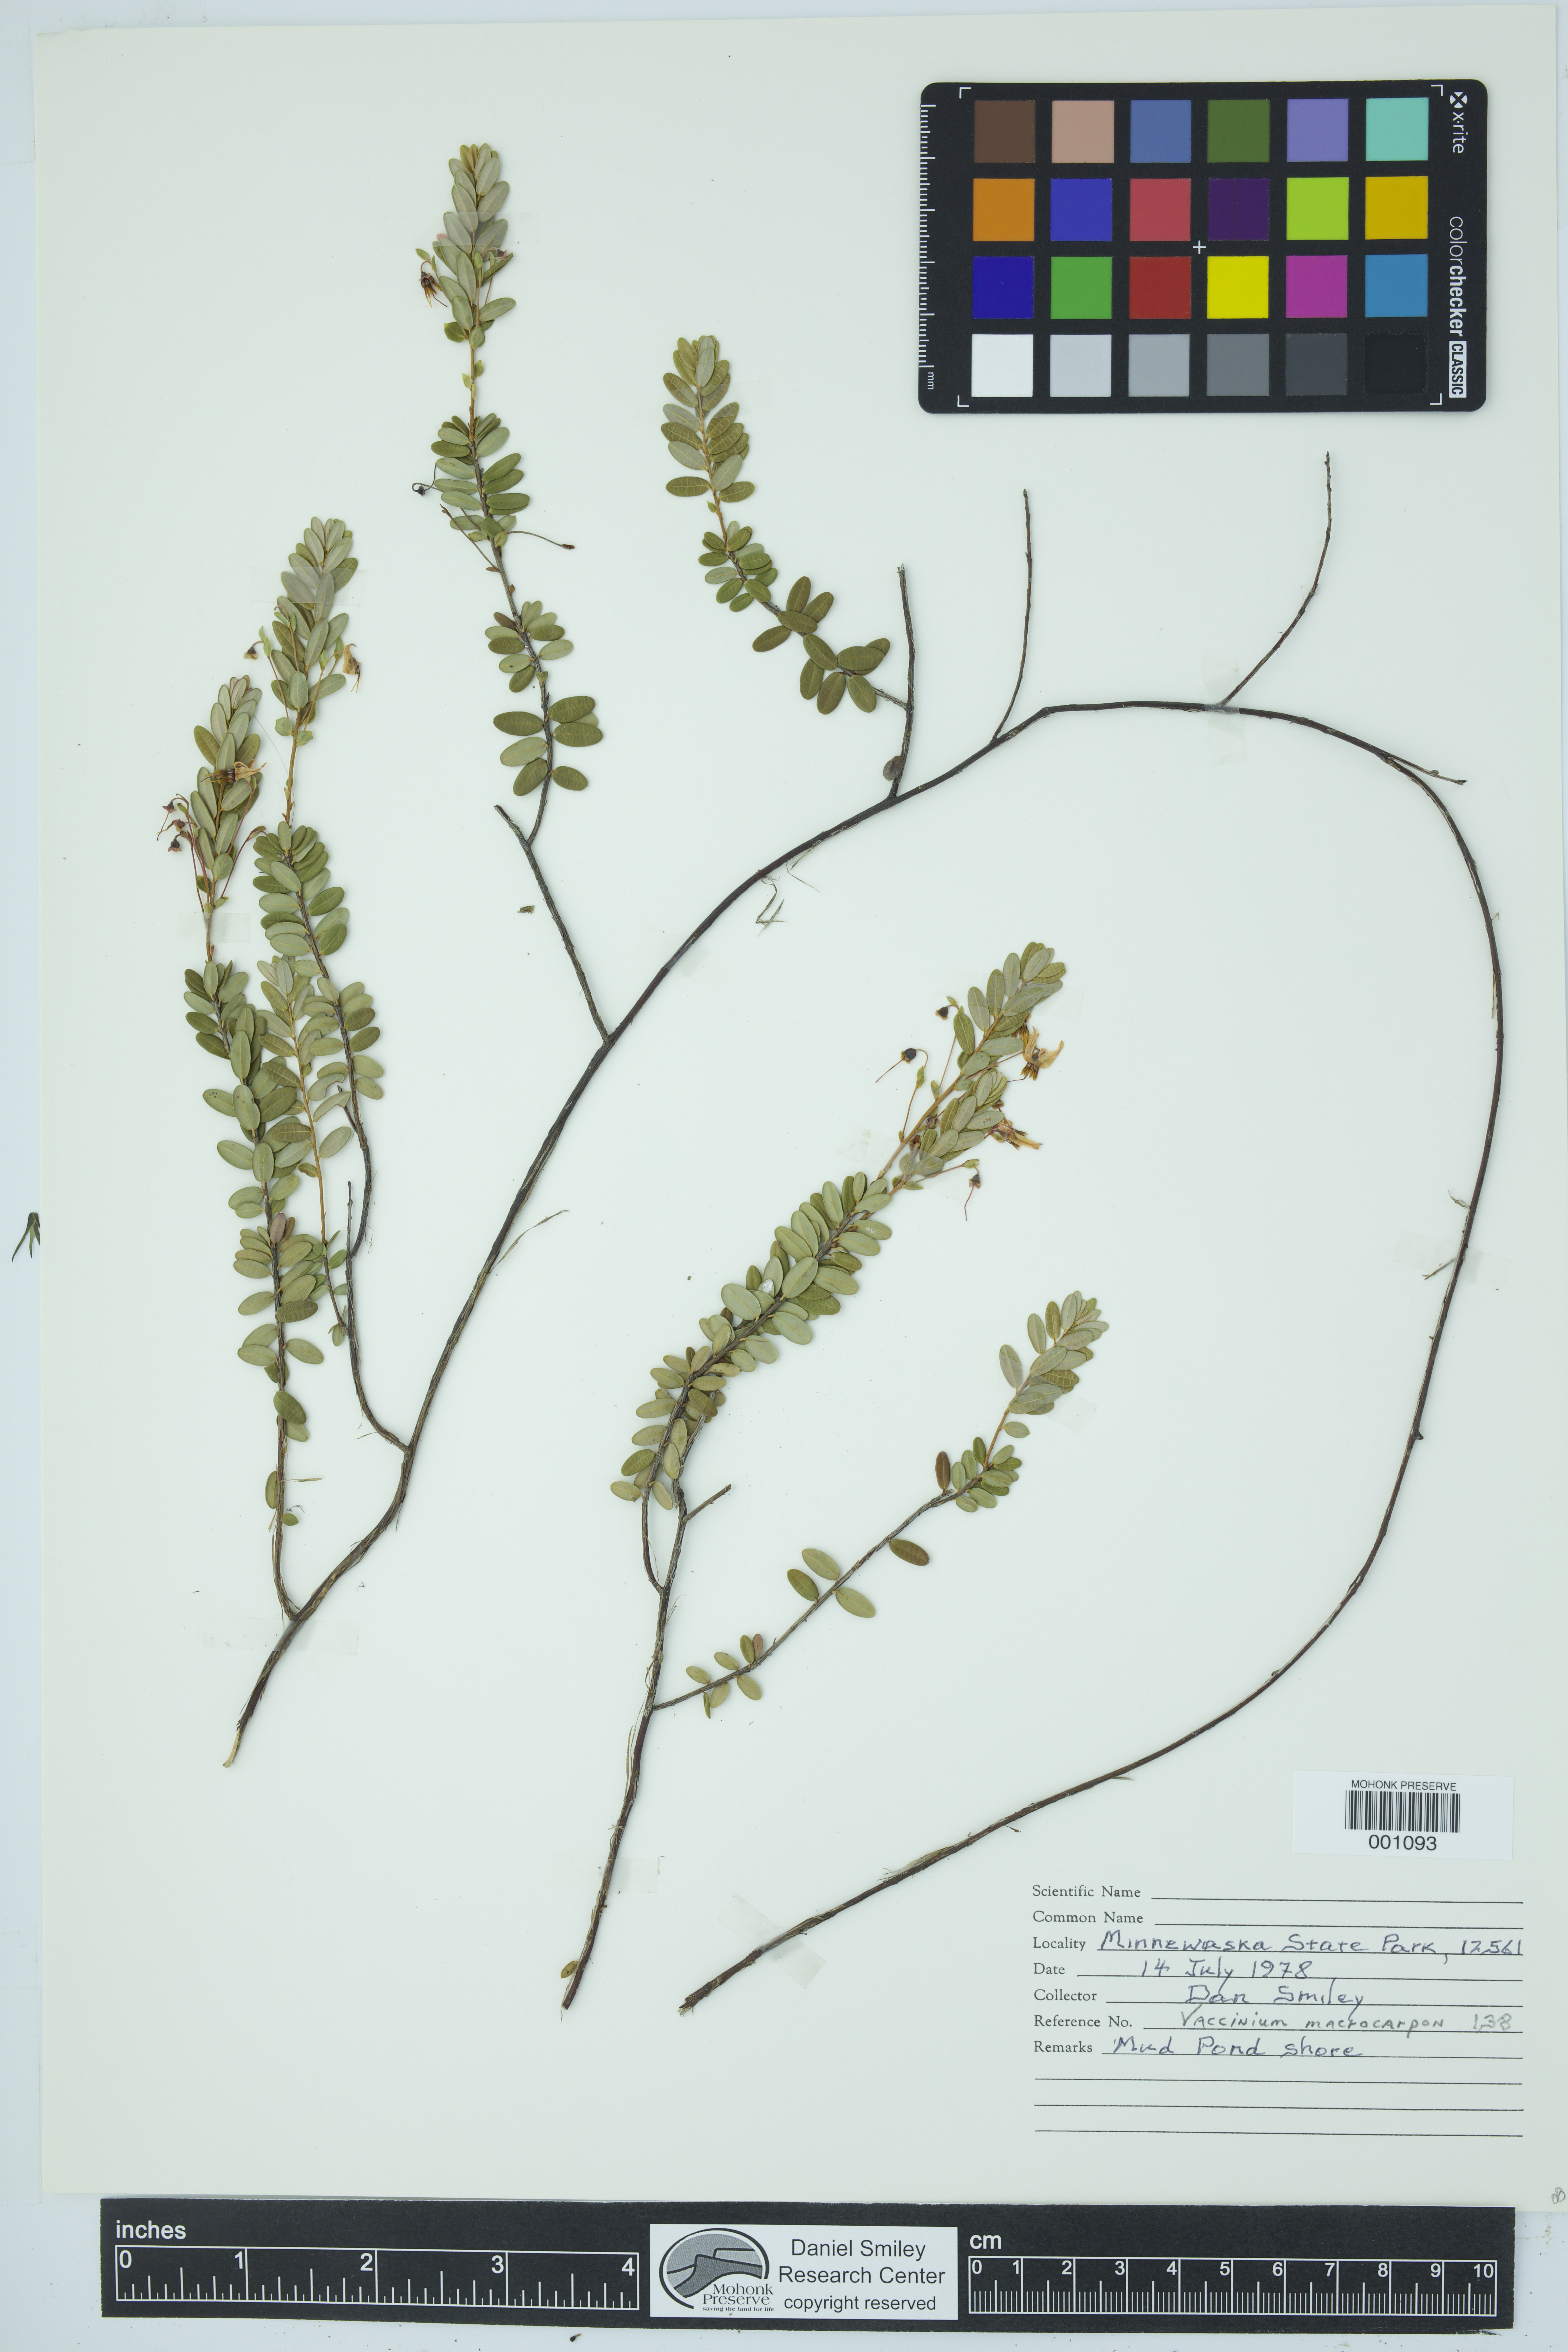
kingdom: Plantae
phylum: Tracheophyta
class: Magnoliopsida
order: Ericales
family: Ericaceae
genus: Vaccinium
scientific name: Vaccinium macrocarpon
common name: American cranberry
